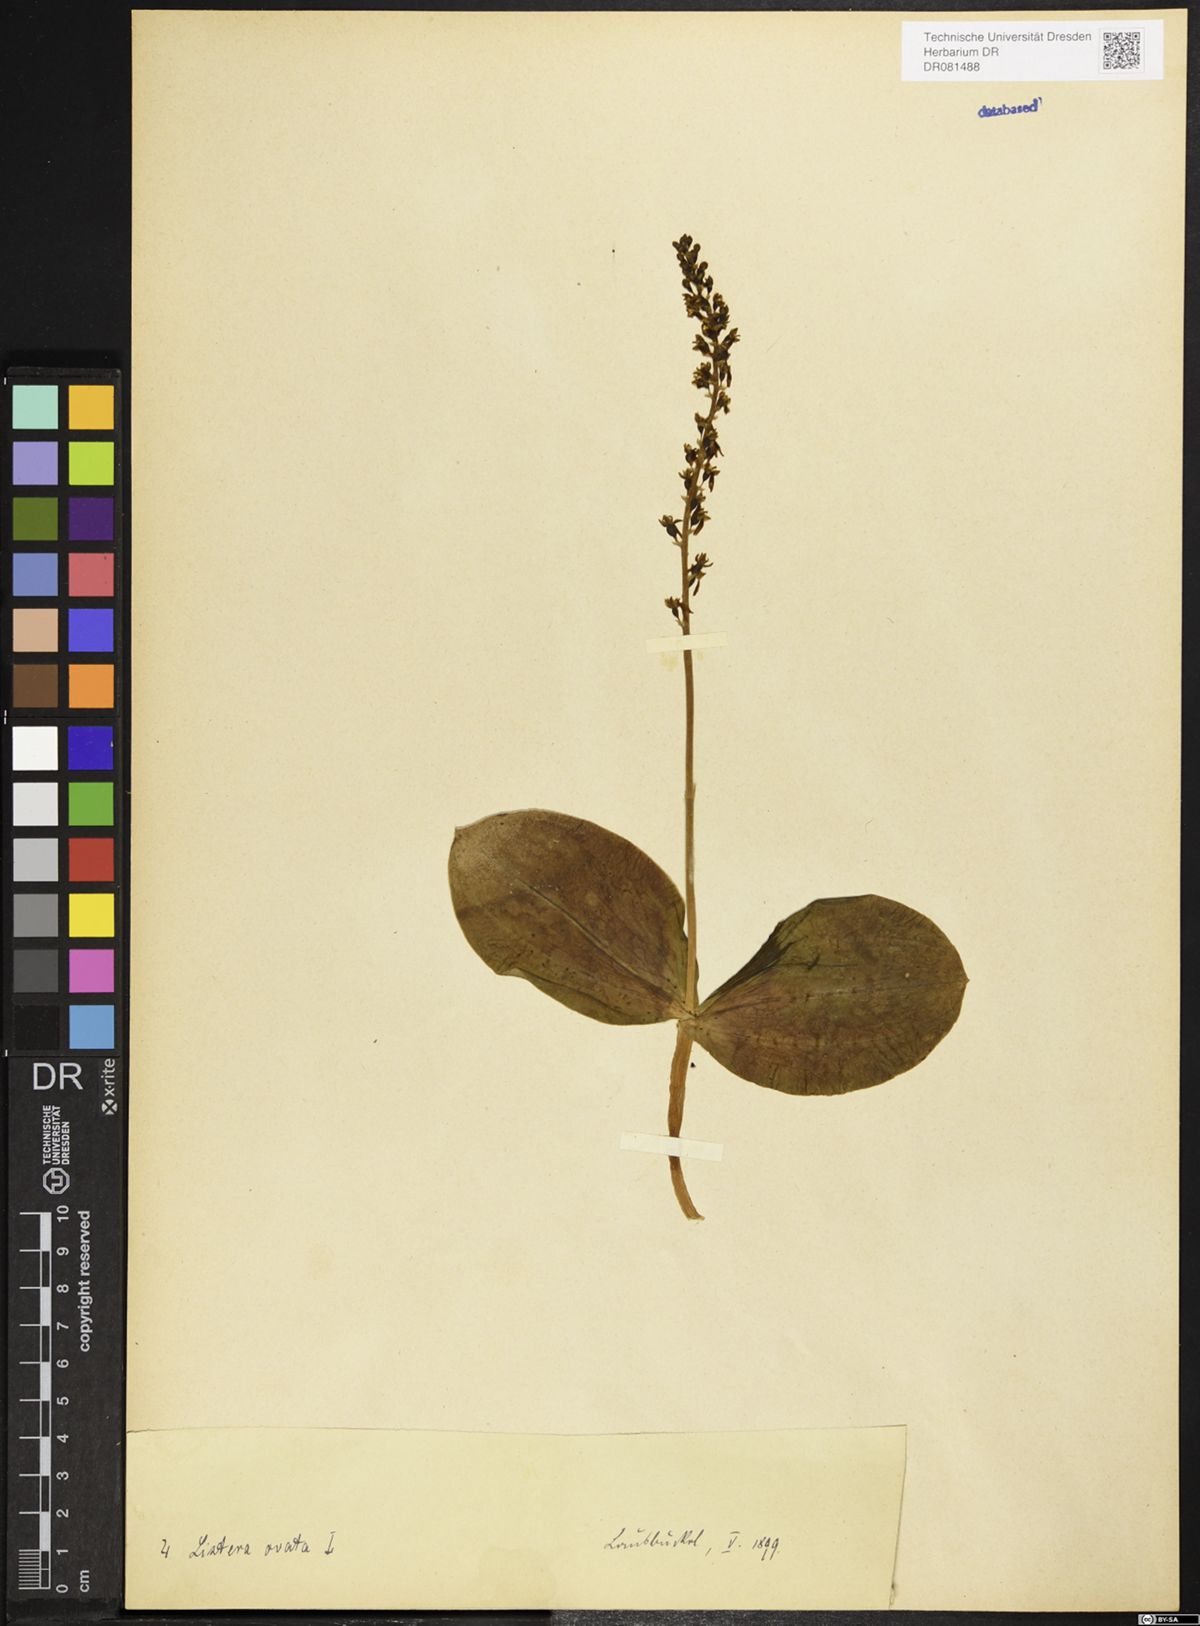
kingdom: Plantae
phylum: Tracheophyta
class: Liliopsida
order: Asparagales
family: Orchidaceae
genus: Neottia
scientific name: Neottia ovata
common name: Common twayblade
